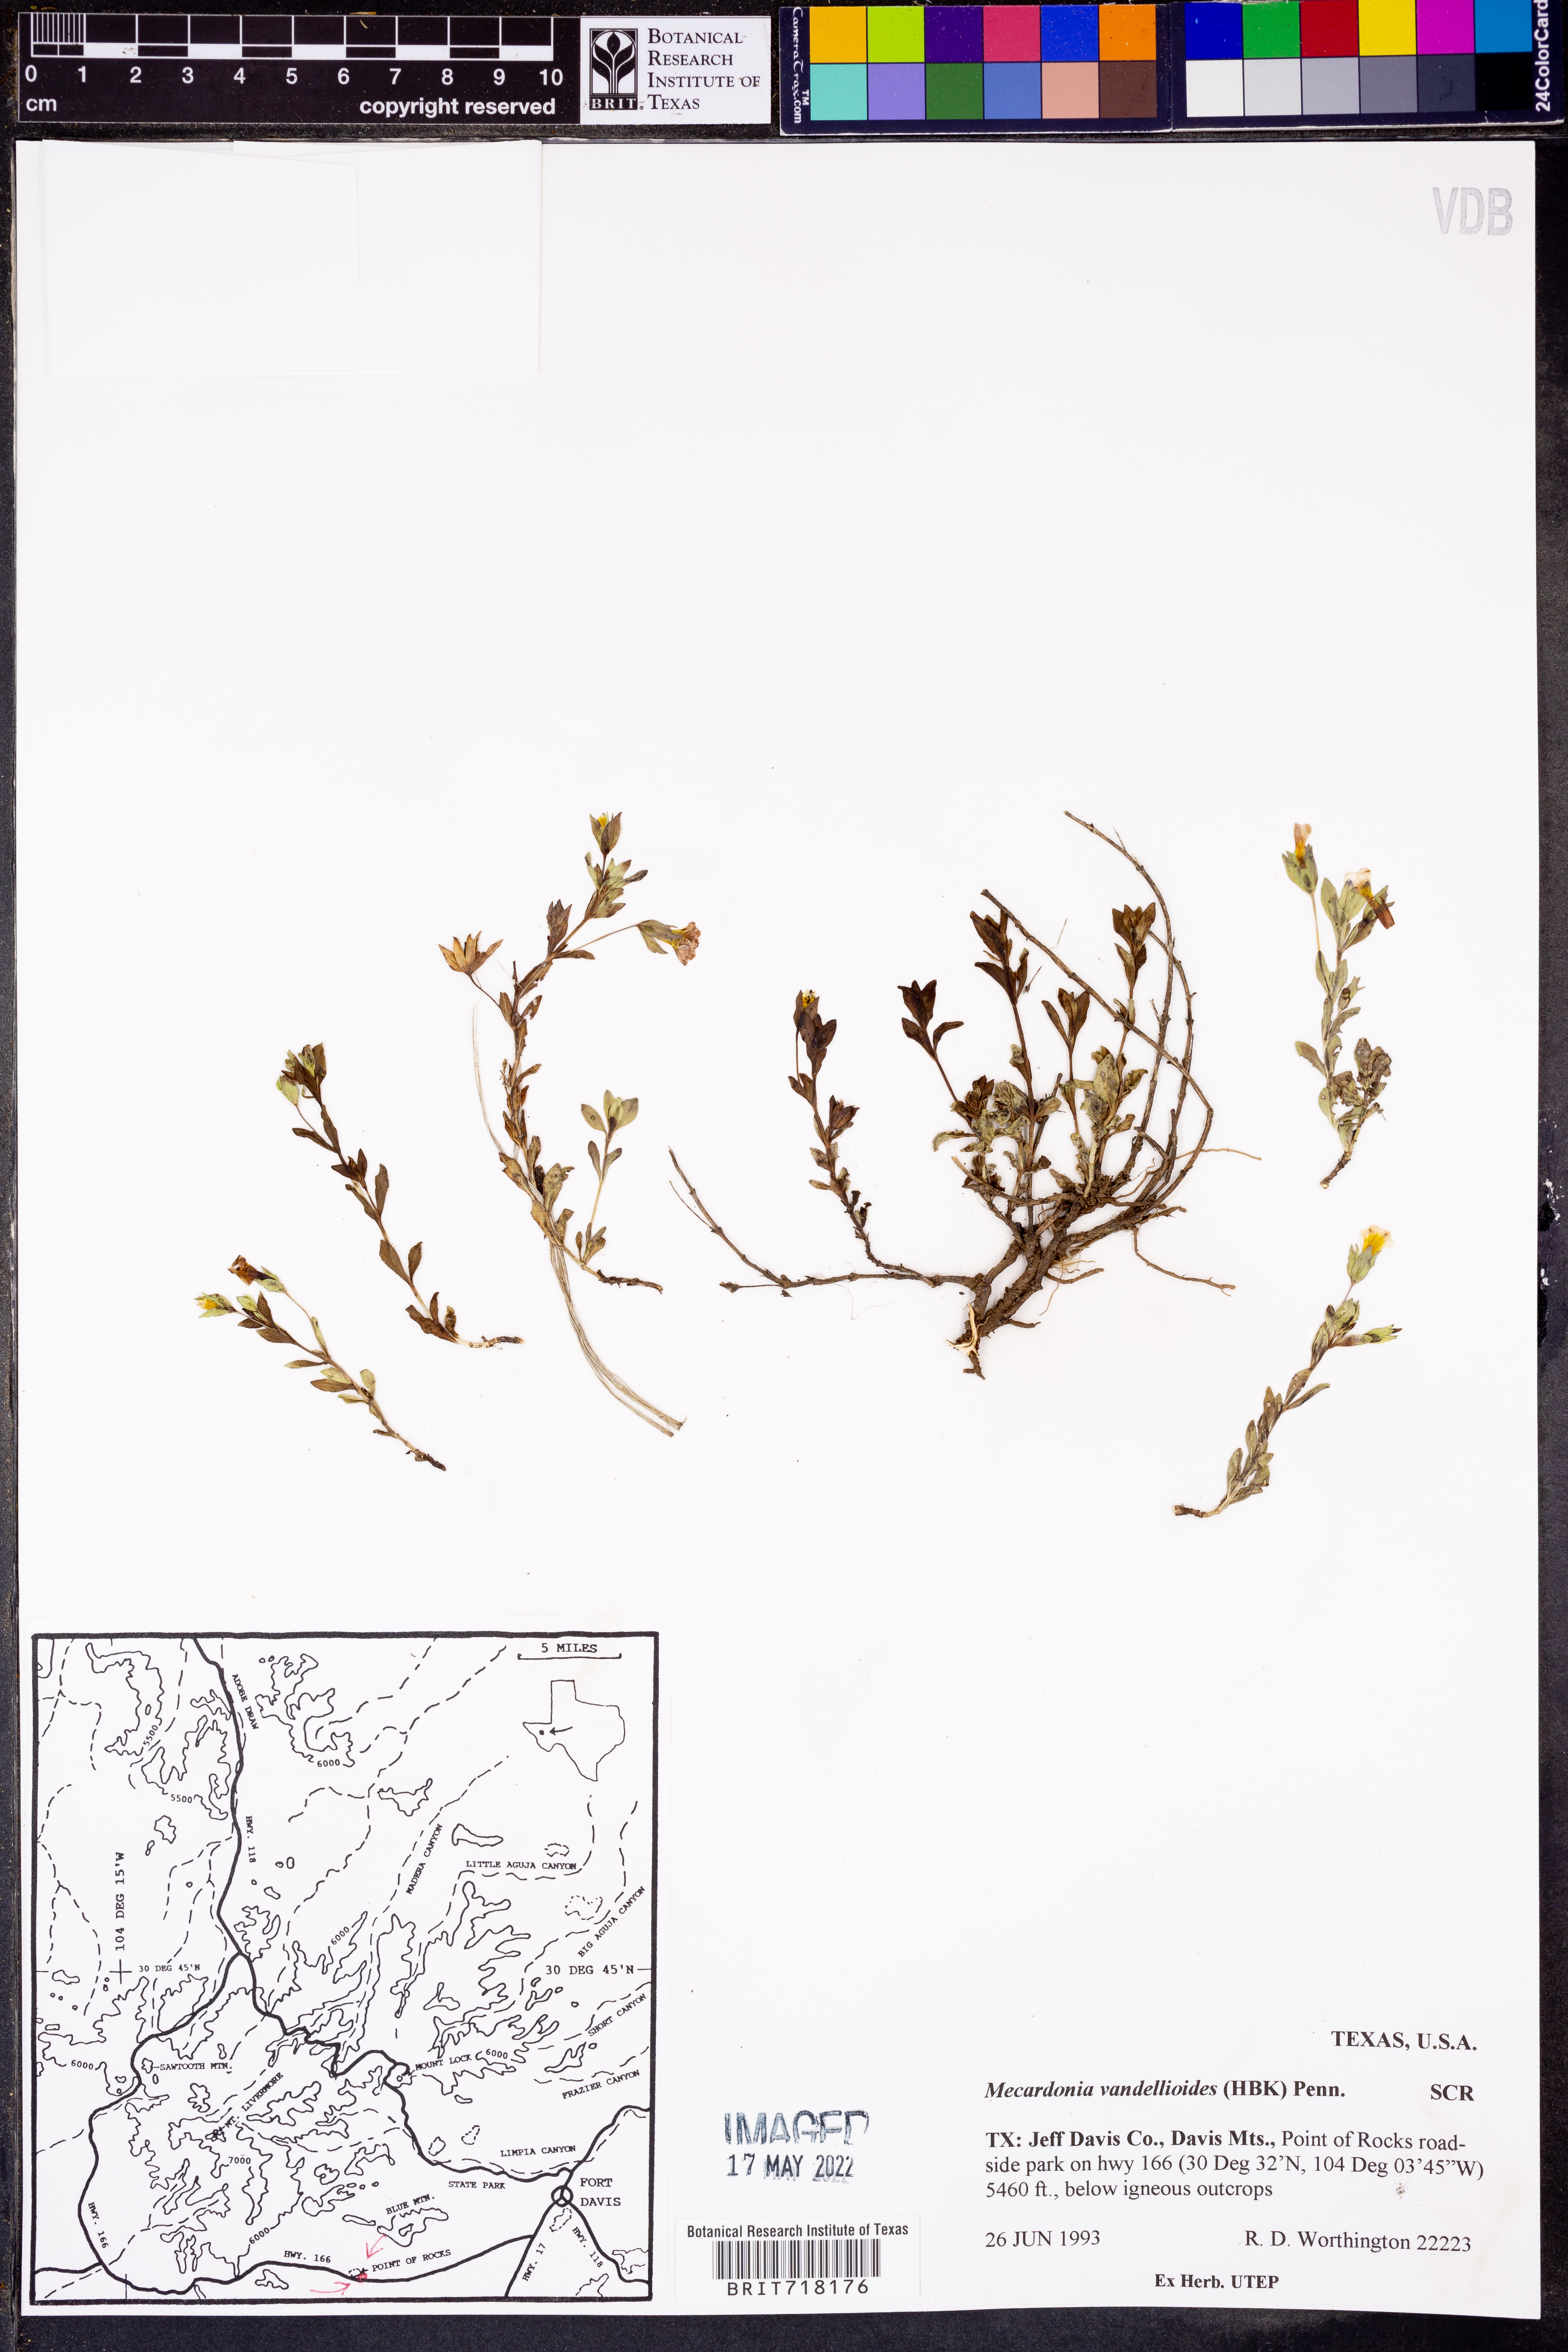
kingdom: Plantae
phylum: Tracheophyta
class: Magnoliopsida
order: Lamiales
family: Plantaginaceae
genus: Mecardonia
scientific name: Mecardonia procumbens
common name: Baby jump-up
